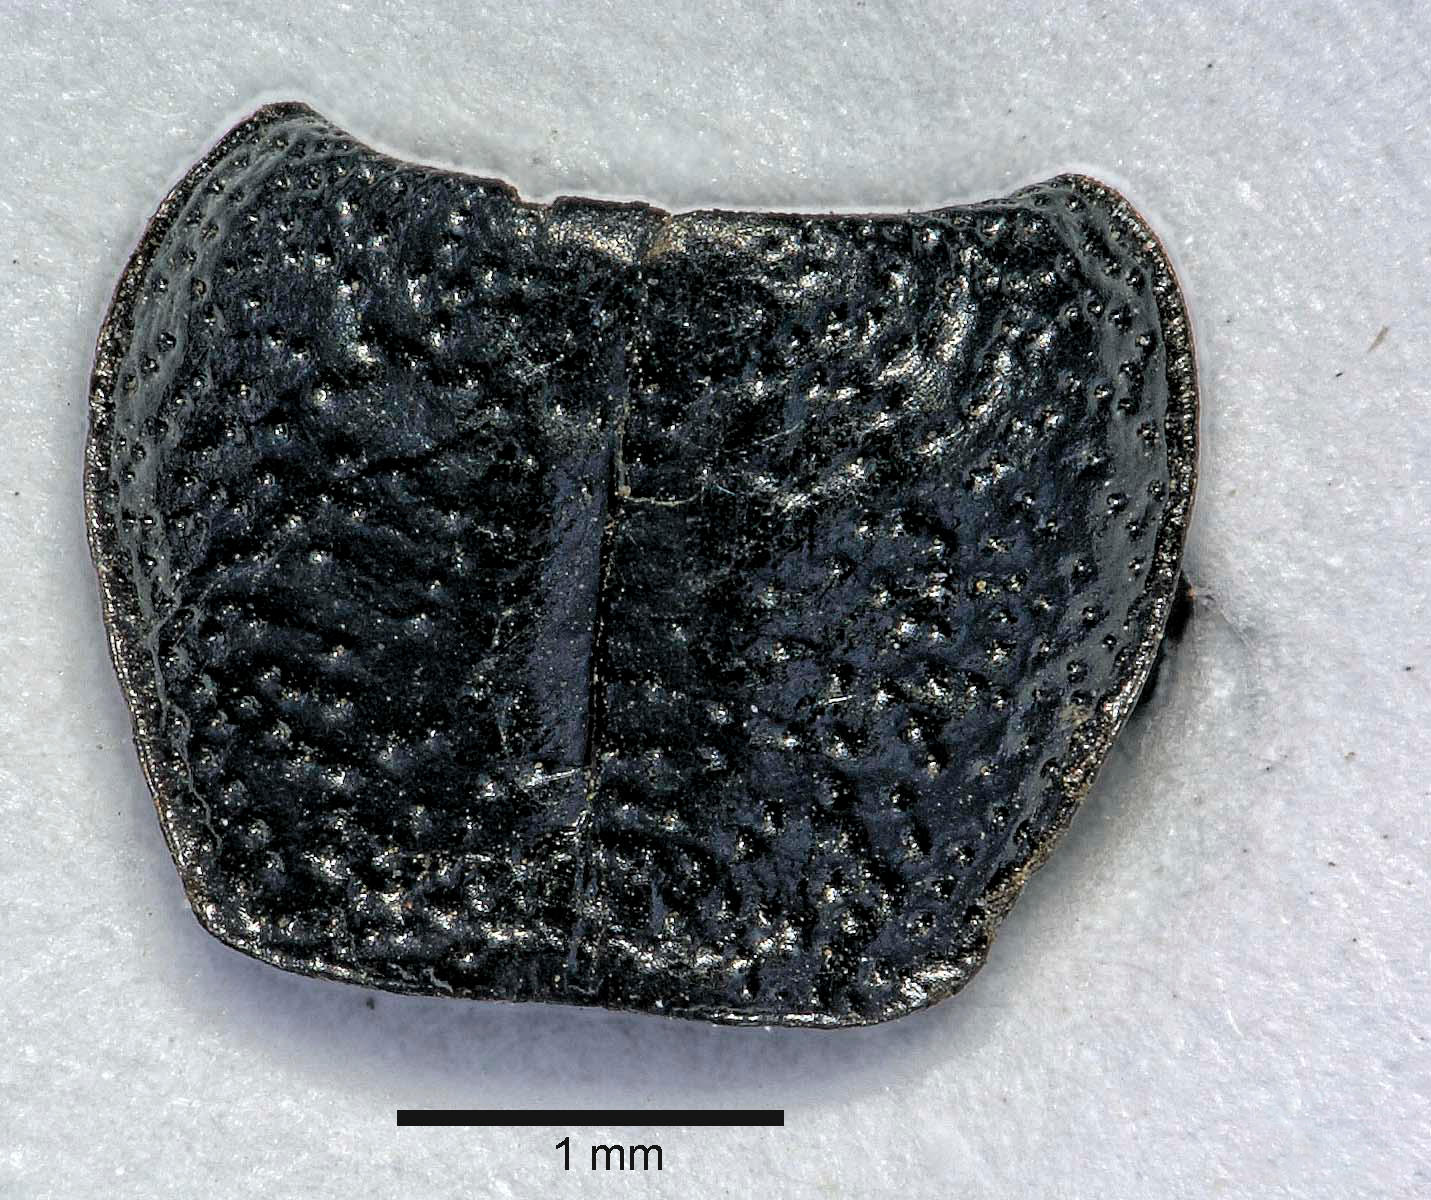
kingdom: Animalia
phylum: Arthropoda
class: Insecta
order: Coleoptera
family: Carabidae
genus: Dicheirus
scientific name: Dicheirus dilatatus
